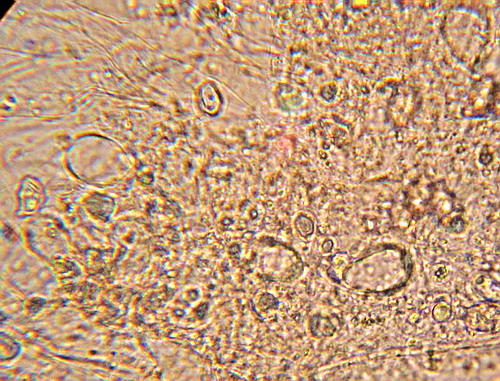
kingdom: Fungi
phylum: Basidiomycota
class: Agaricomycetes
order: Agaricales
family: Entolomataceae
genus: Entoloma
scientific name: Entoloma hebes
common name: krat-rødblad
